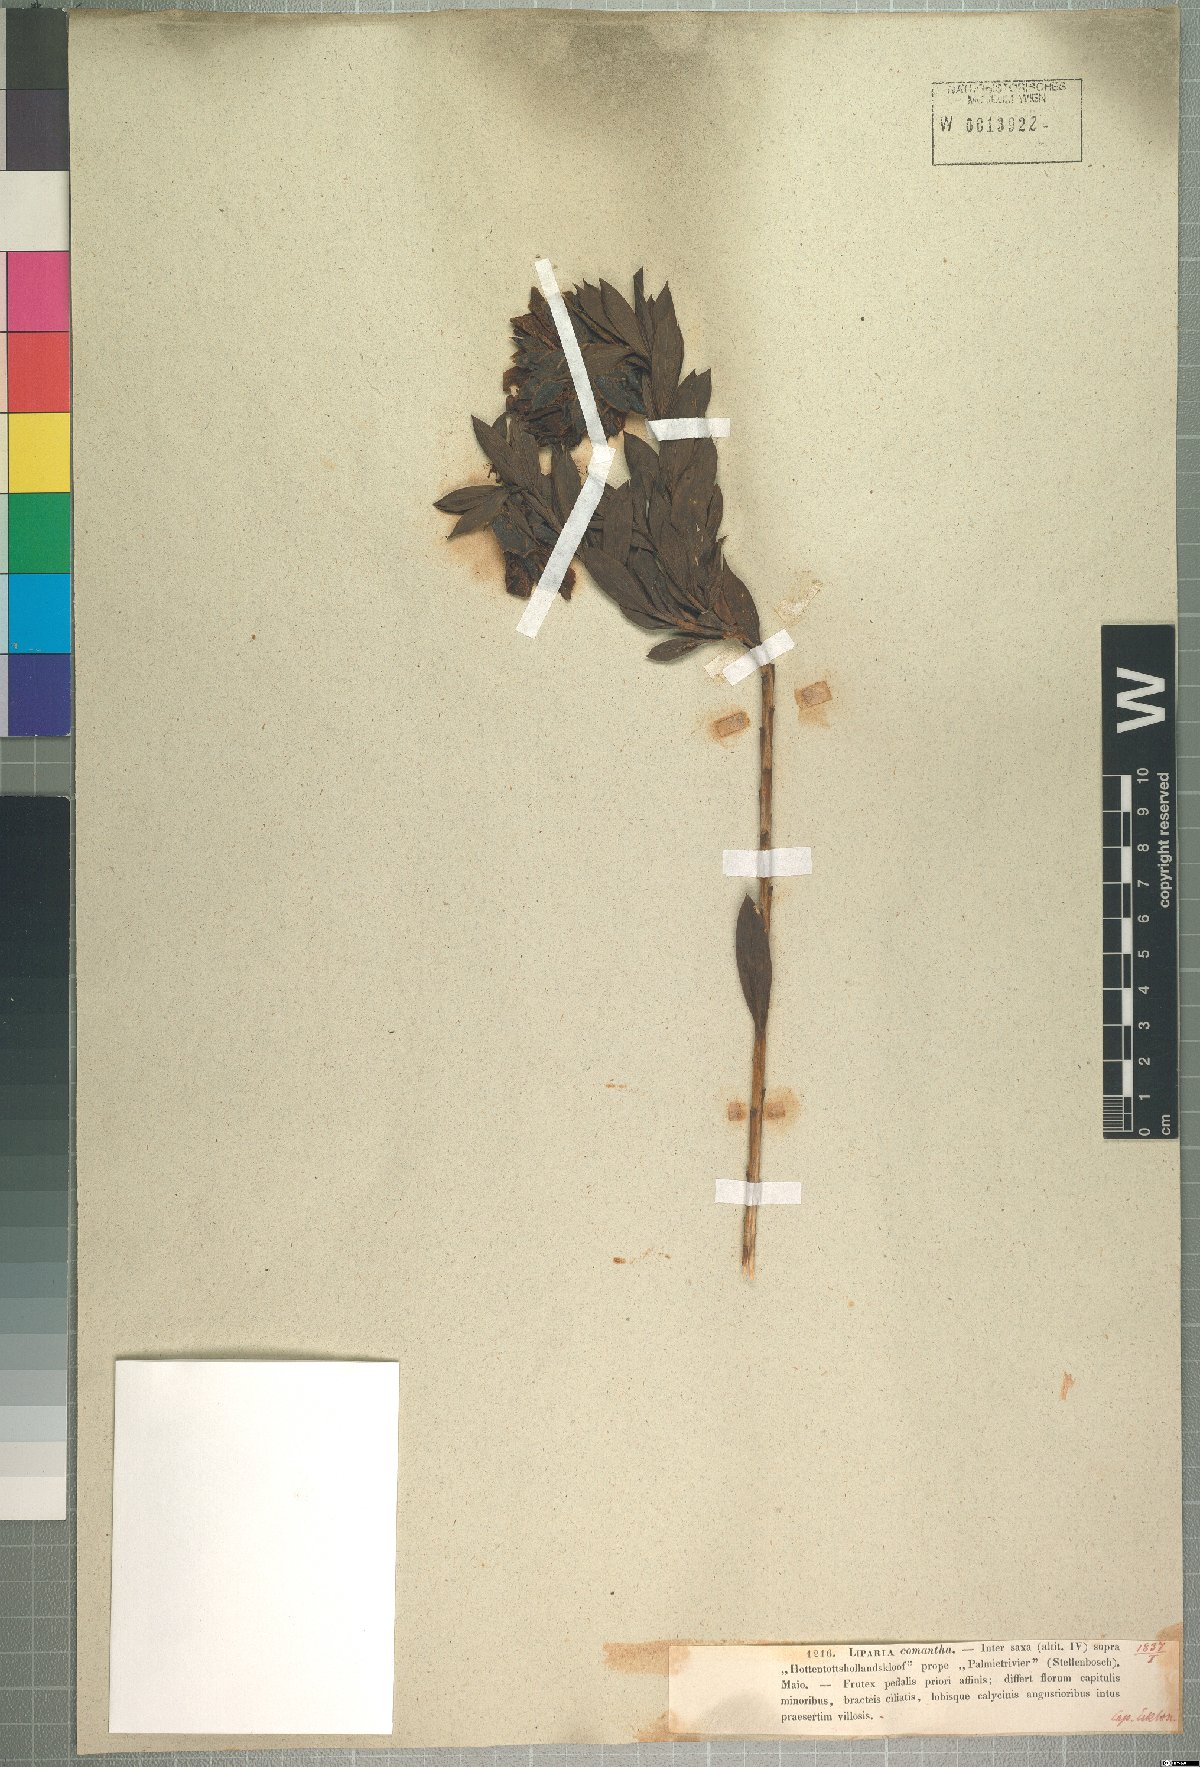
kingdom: Plantae
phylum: Tracheophyta
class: Magnoliopsida
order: Fabales
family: Fabaceae
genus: Liparia
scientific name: Liparia splendens
